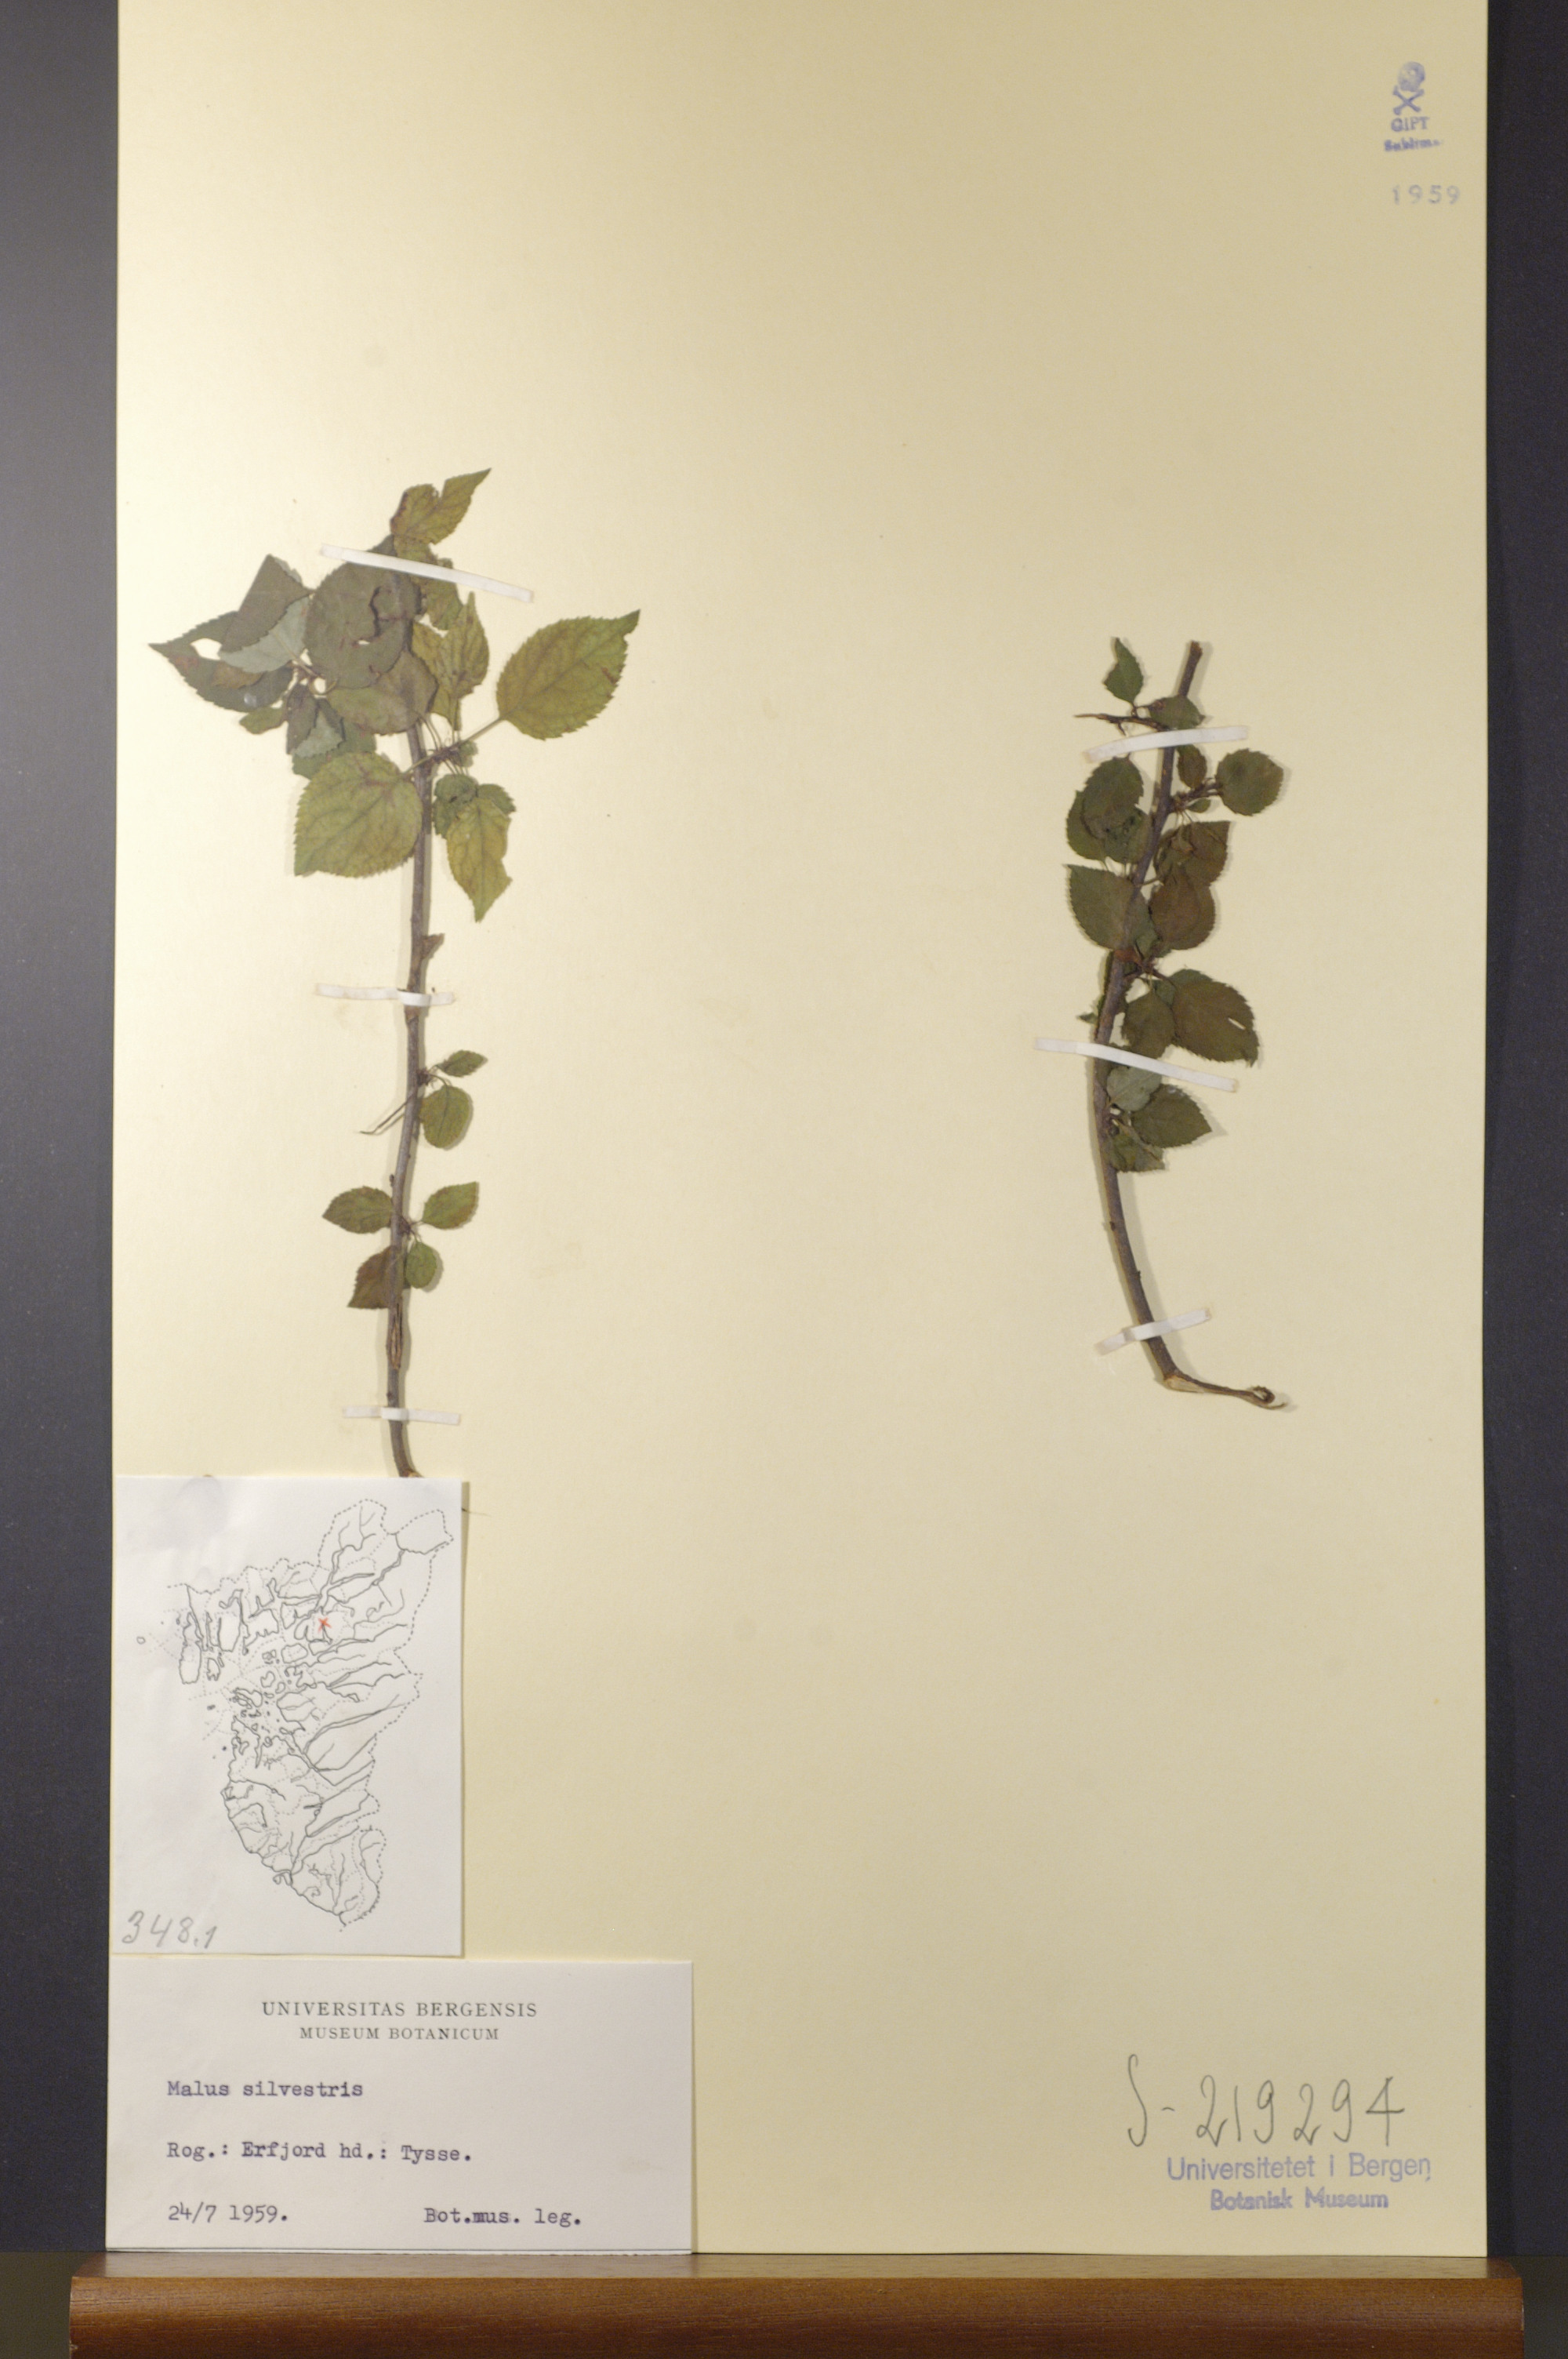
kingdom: Plantae
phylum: Tracheophyta
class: Magnoliopsida
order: Rosales
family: Rosaceae
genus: Malus
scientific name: Malus sylvestris
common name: Crab apple
